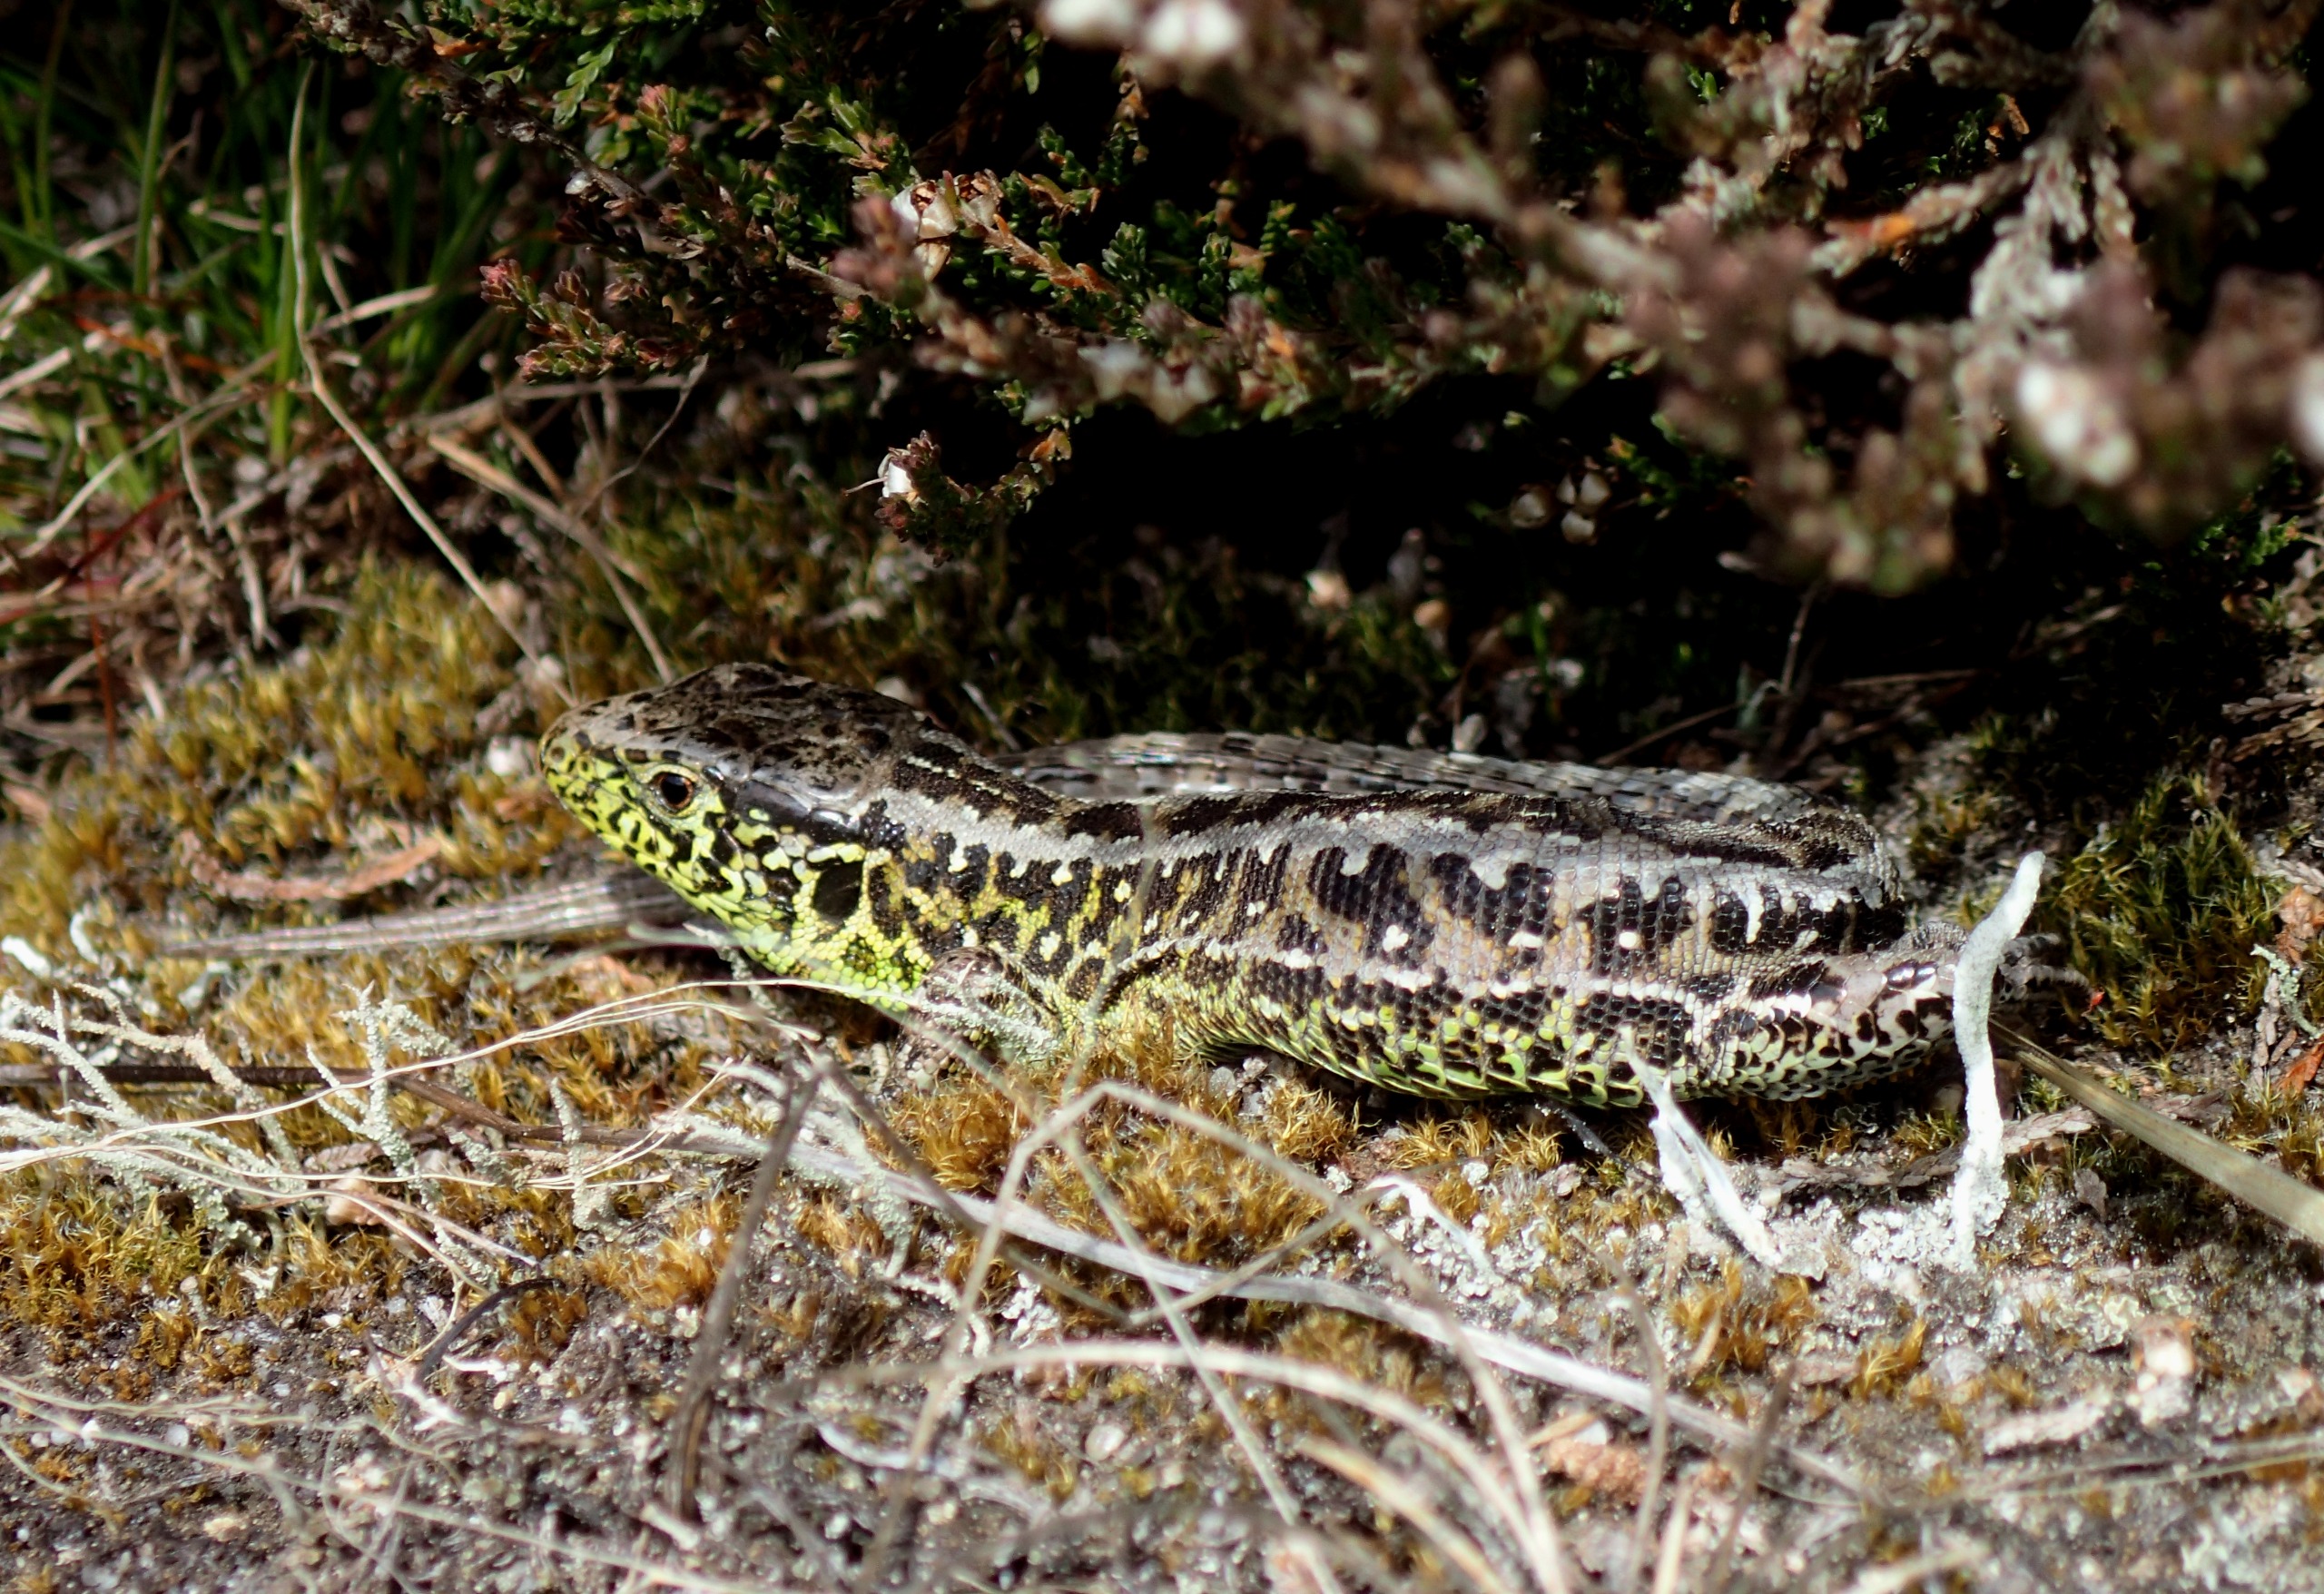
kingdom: Animalia
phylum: Chordata
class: Squamata
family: Lacertidae
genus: Lacerta
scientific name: Lacerta agilis
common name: Markfirben
